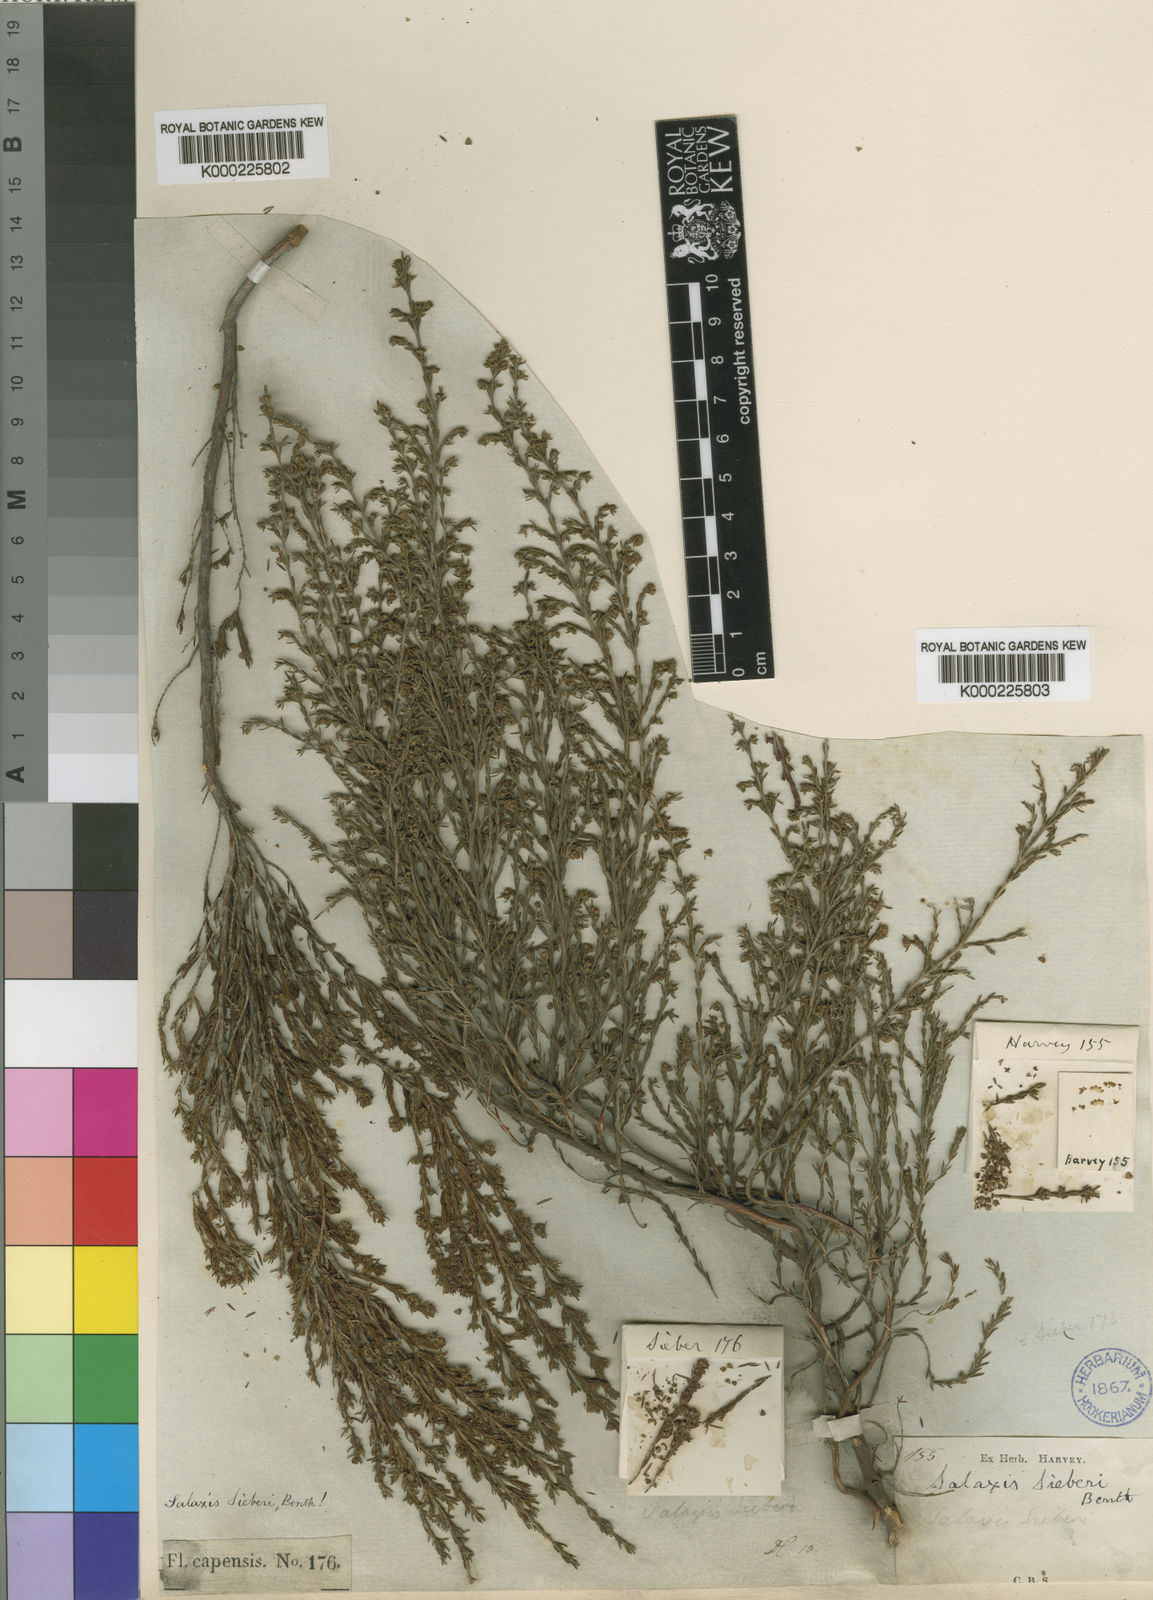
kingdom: Plantae
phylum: Tracheophyta
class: Magnoliopsida
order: Ericales
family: Ericaceae
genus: Erica
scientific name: Erica axillaris
